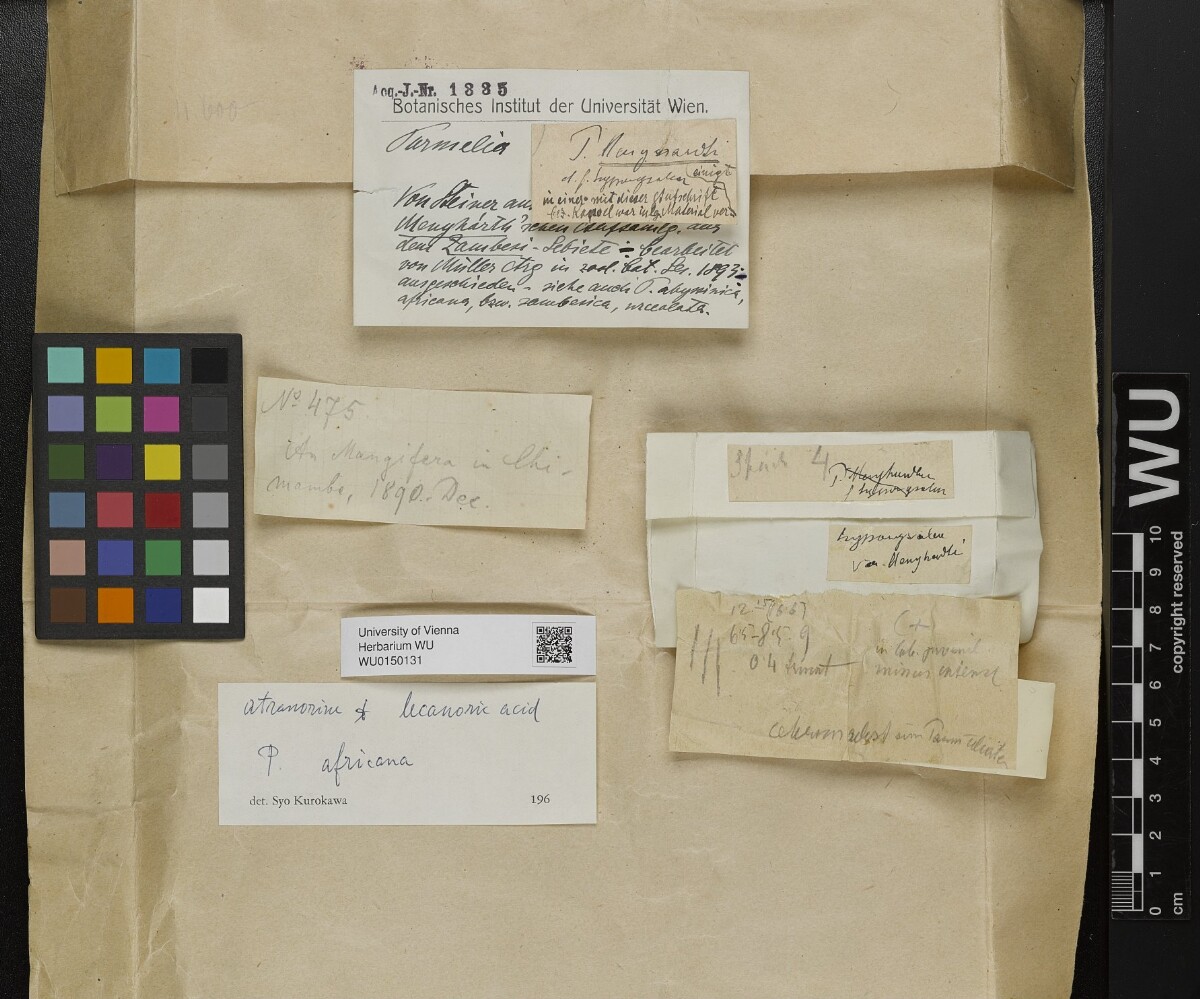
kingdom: Fungi
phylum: Ascomycota
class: Lecanoromycetes
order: Lecanorales
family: Parmeliaceae
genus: Parmotrema
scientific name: Parmotrema andinum
